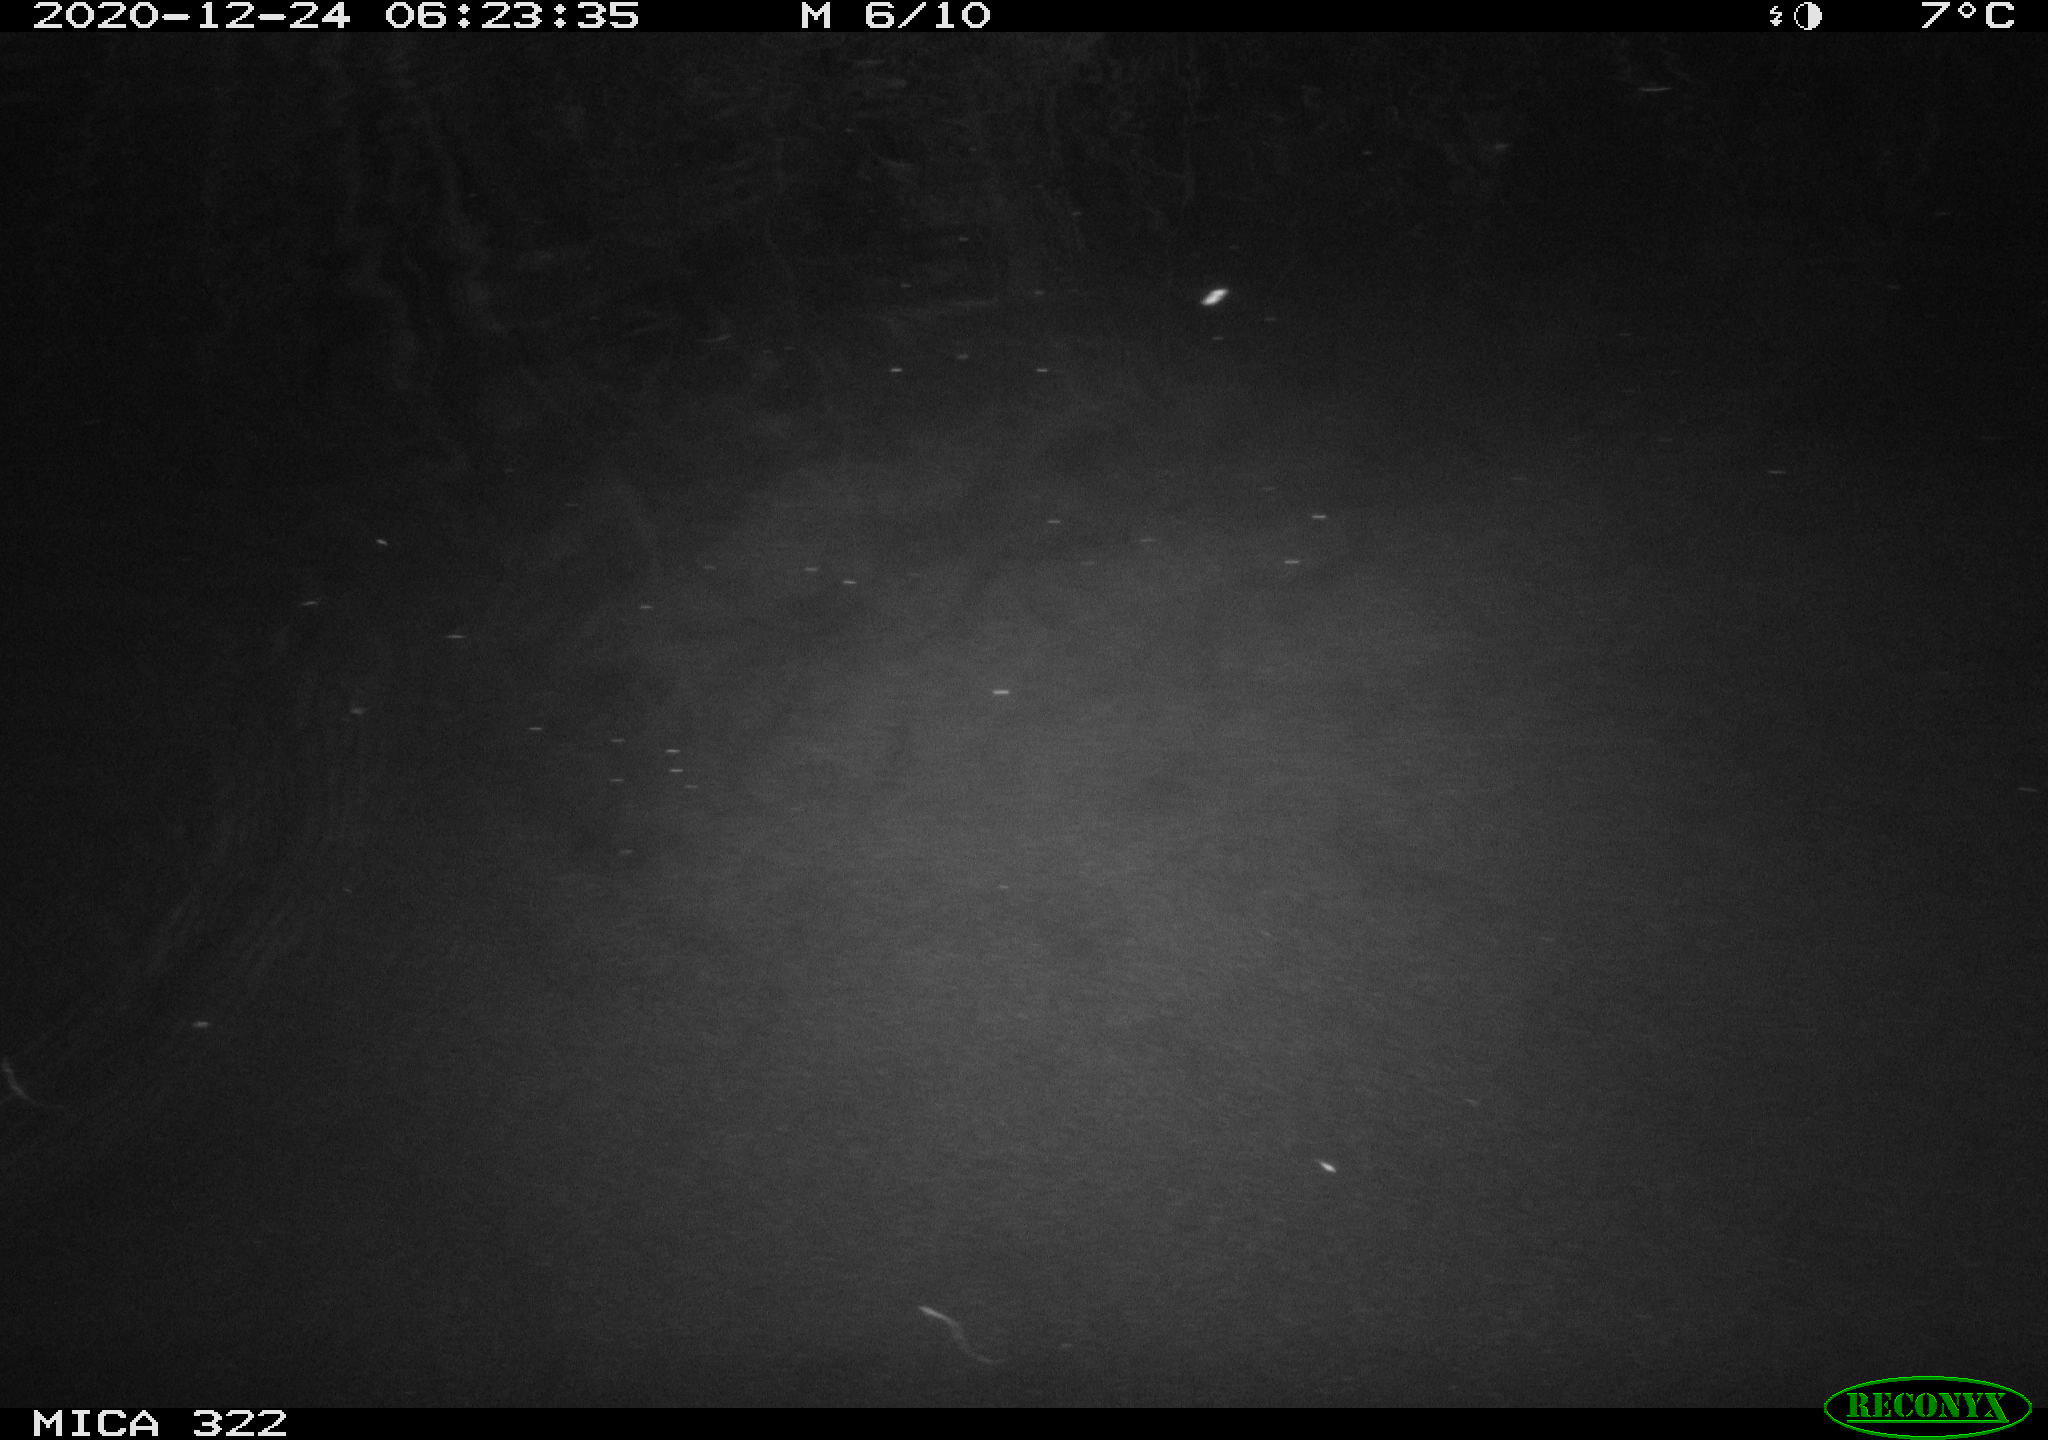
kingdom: Animalia
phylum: Chordata
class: Mammalia
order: Rodentia
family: Muridae
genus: Rattus
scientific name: Rattus norvegicus
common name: Brown rat
